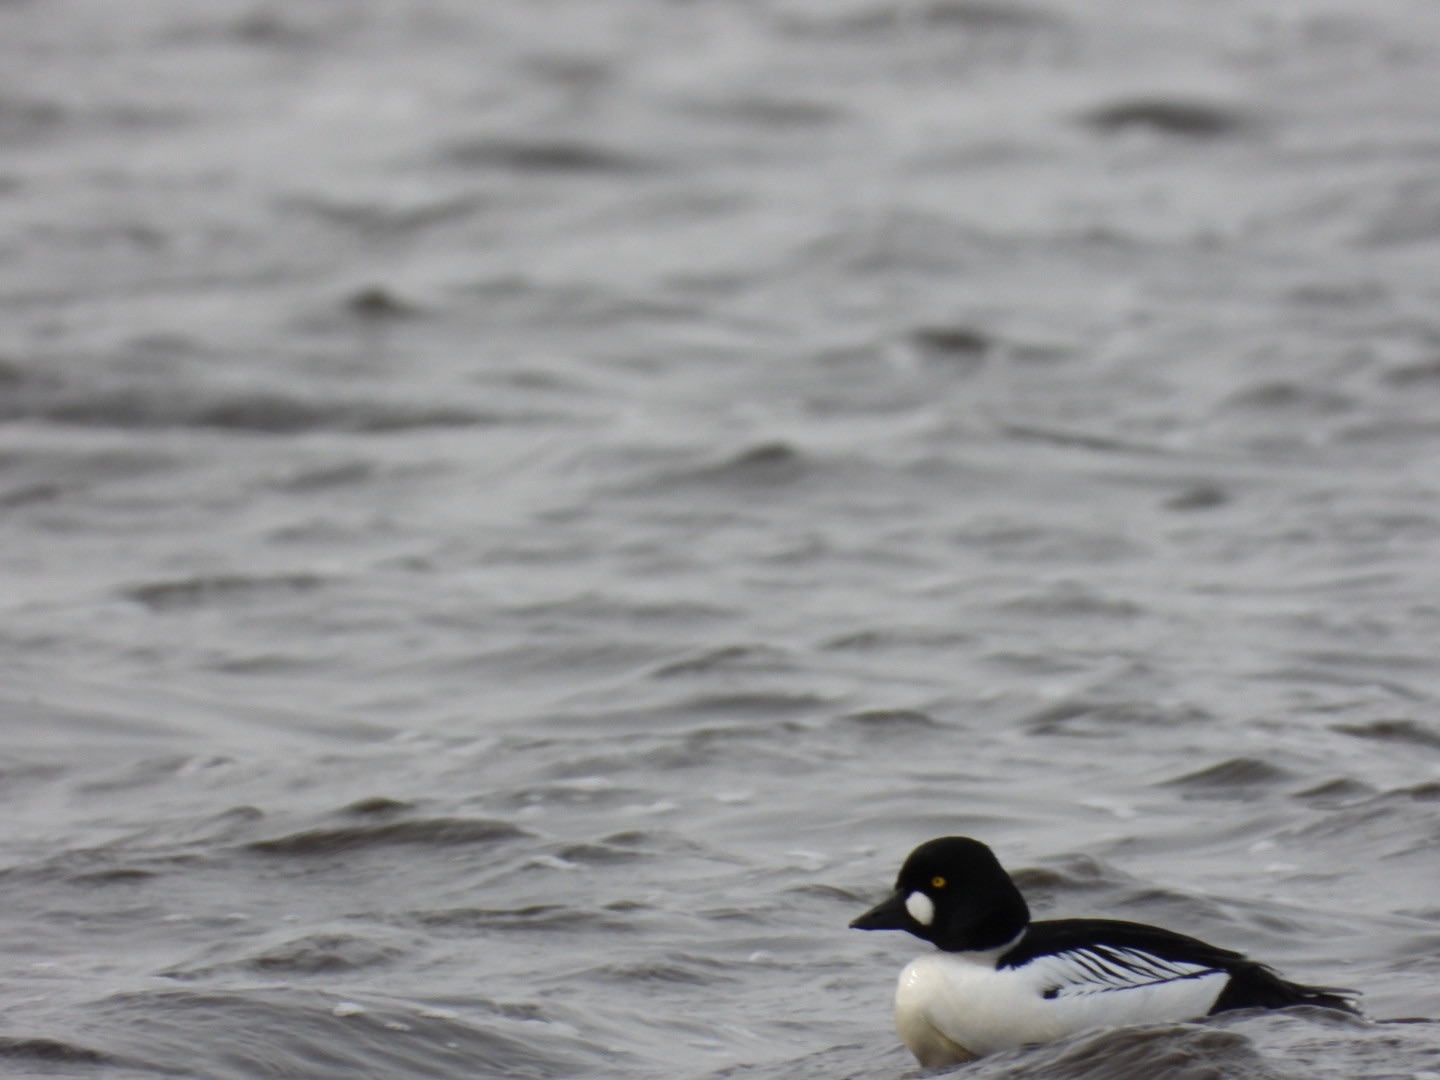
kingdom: Animalia
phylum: Chordata
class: Aves
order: Anseriformes
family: Anatidae
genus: Bucephala
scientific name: Bucephala clangula
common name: Hvinand
